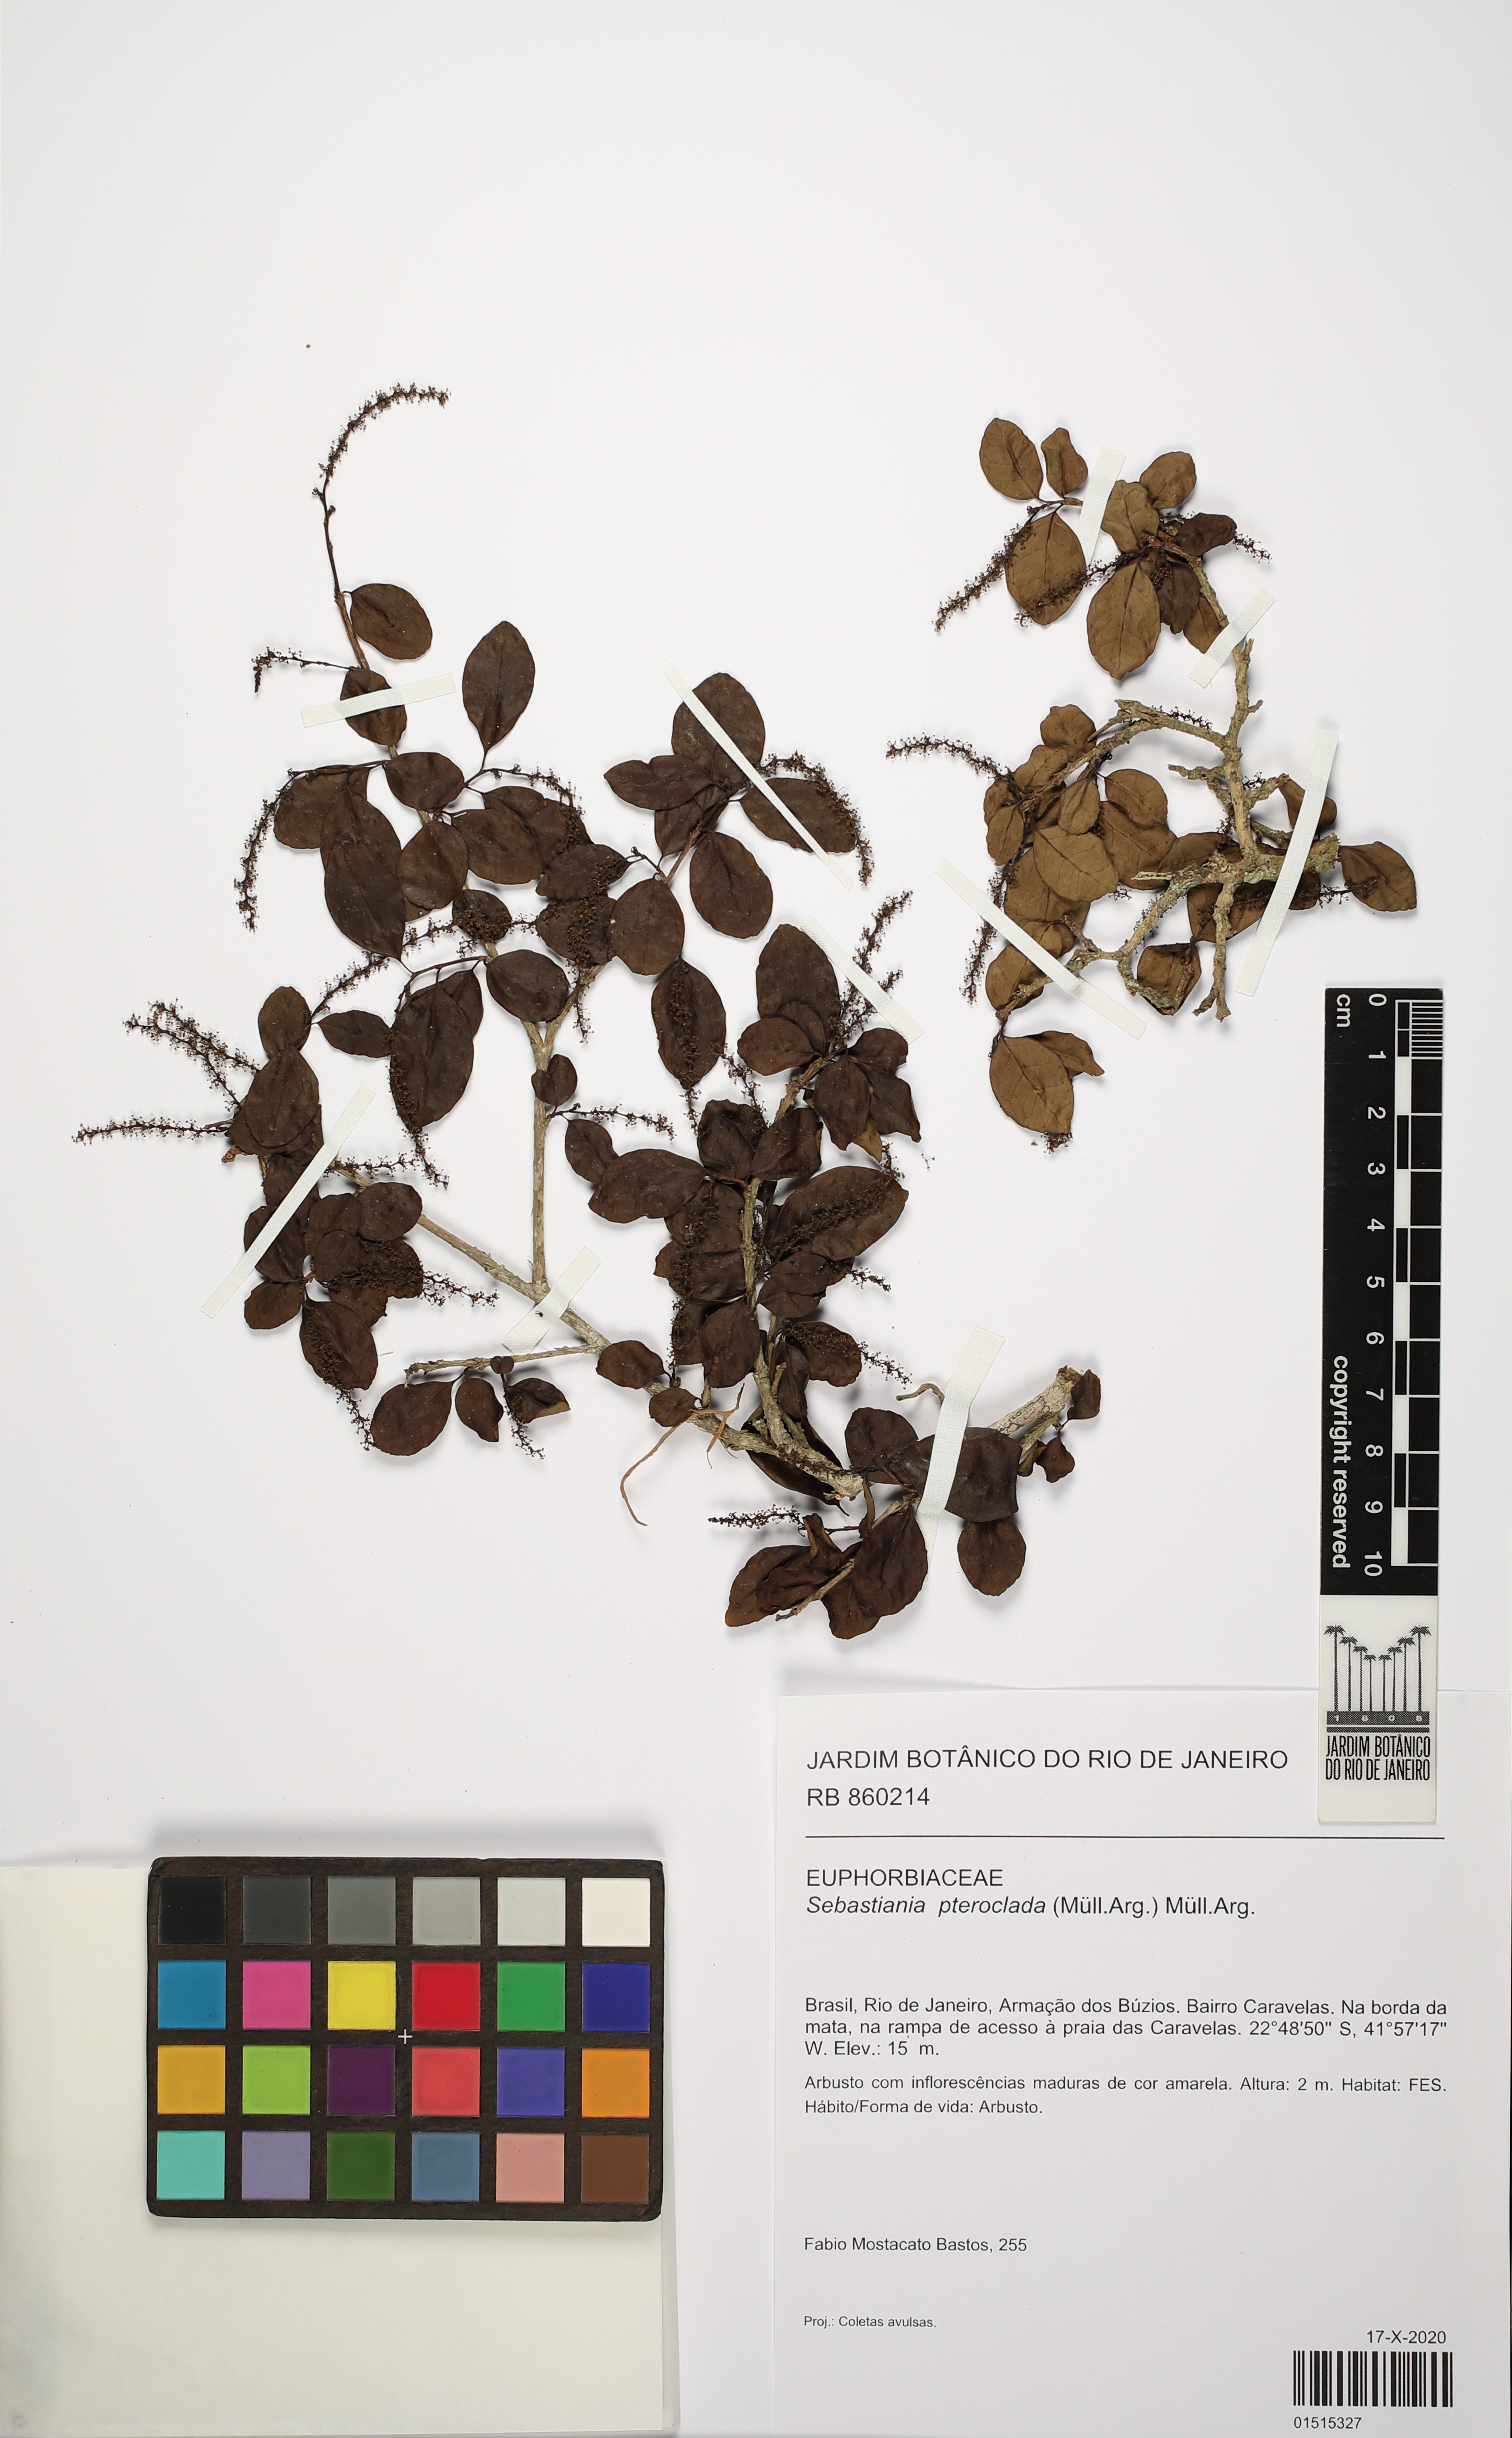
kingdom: Plantae
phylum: Tracheophyta
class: Magnoliopsida
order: Malpighiales
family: Euphorbiaceae
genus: Sebastiania
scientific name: Sebastiania pteroclada
